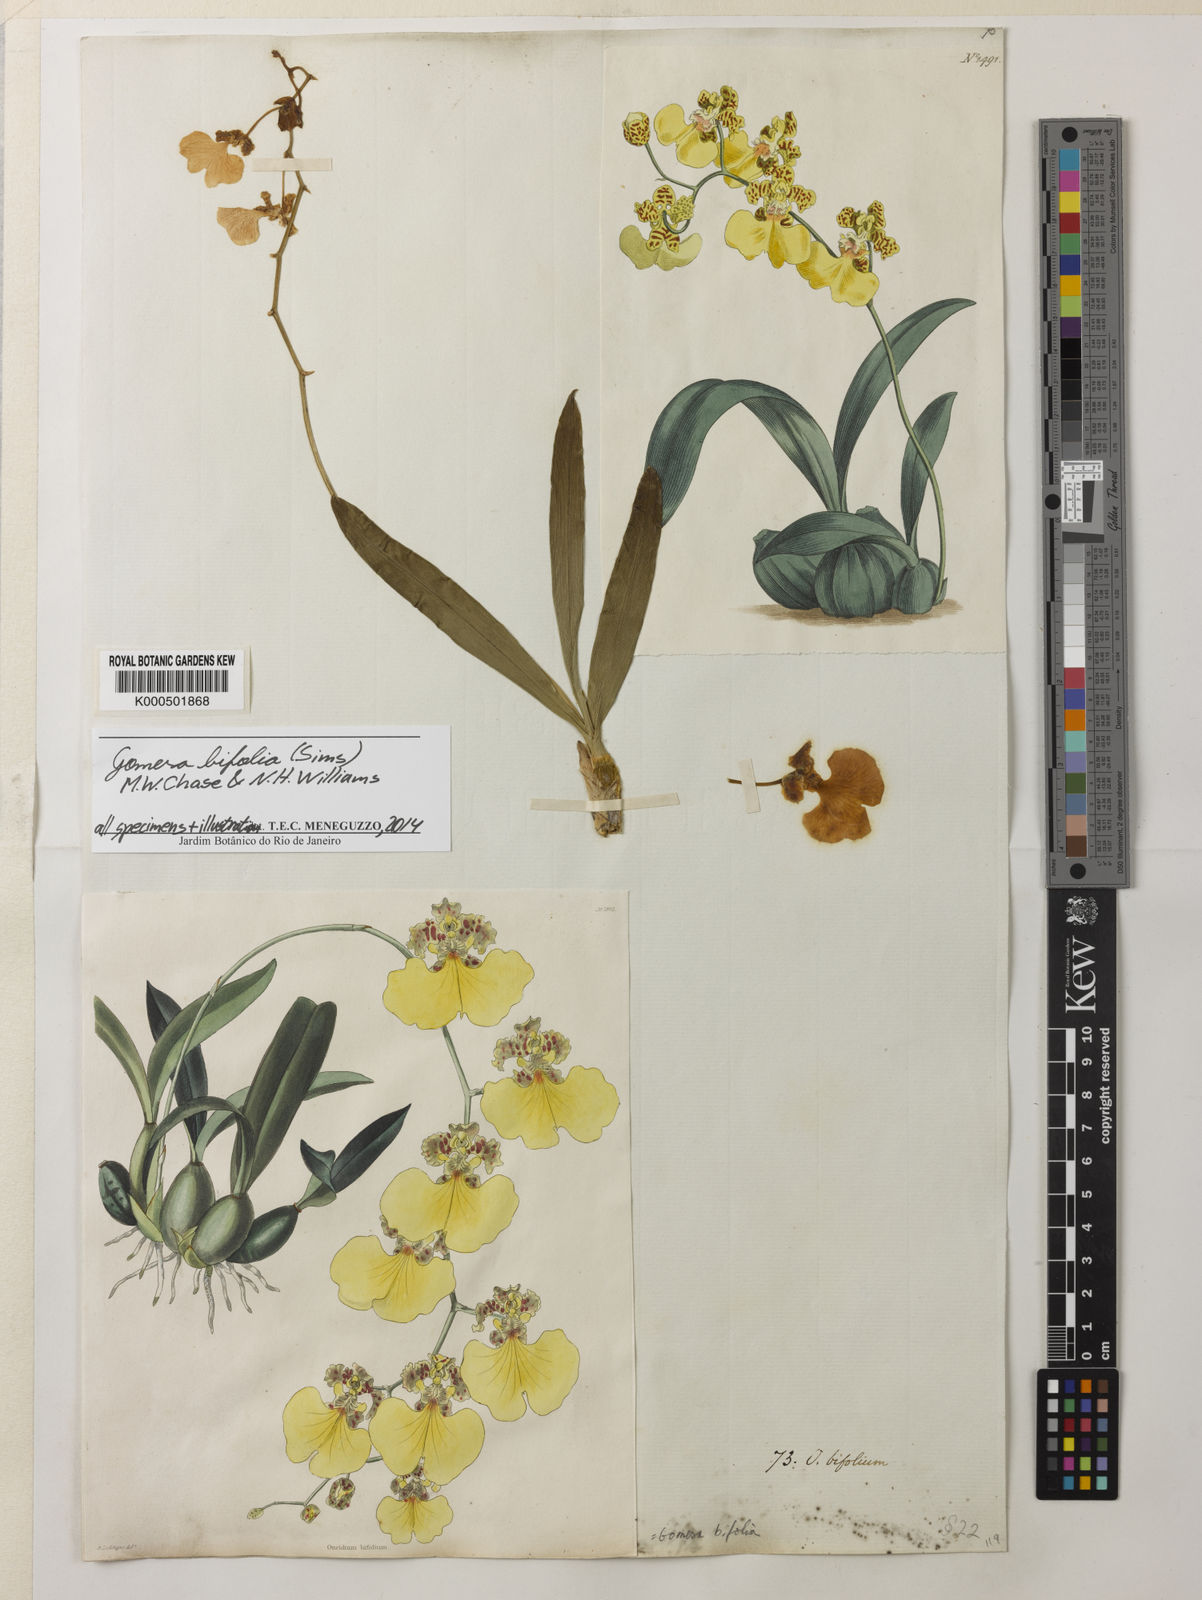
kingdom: Plantae
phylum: Tracheophyta
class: Liliopsida
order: Asparagales
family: Orchidaceae
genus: Gomesa
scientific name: Gomesa bifolia
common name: Dancing ladies
